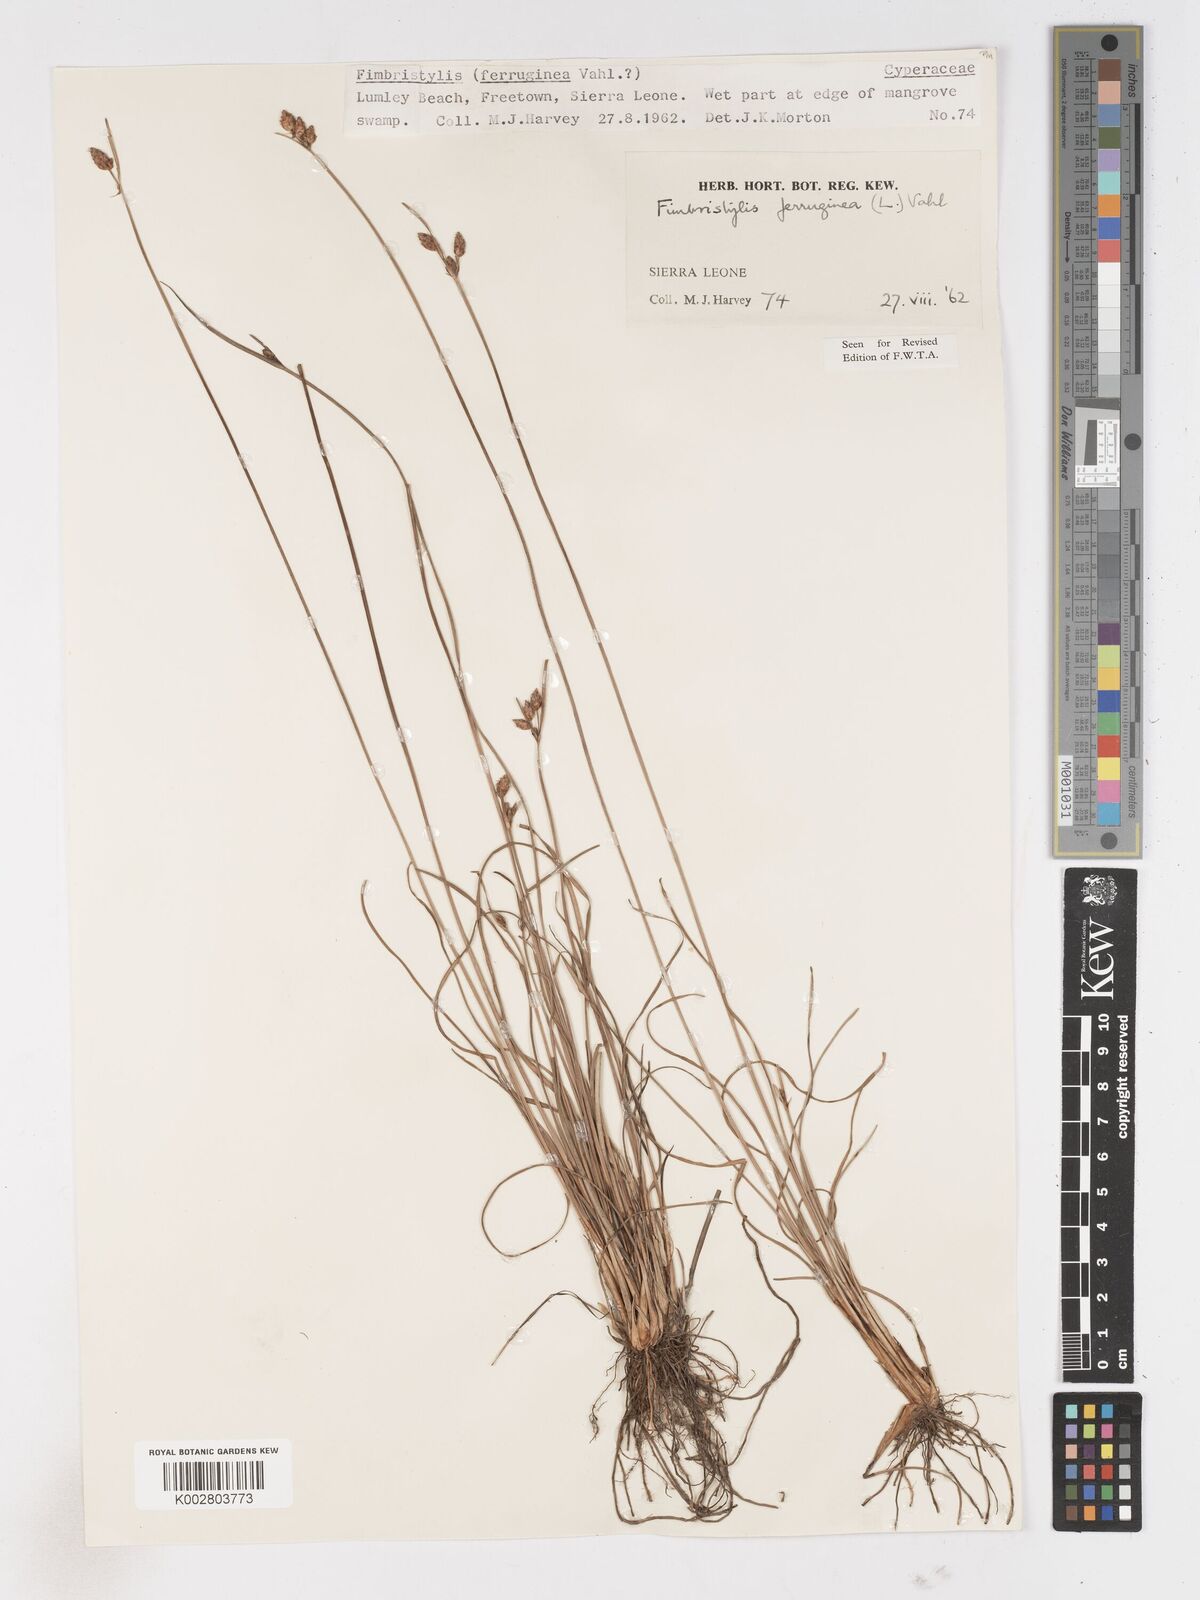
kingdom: Plantae
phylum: Tracheophyta
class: Liliopsida
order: Poales
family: Cyperaceae
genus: Fimbristylis
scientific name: Fimbristylis ferruginea
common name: West indian fimbry
